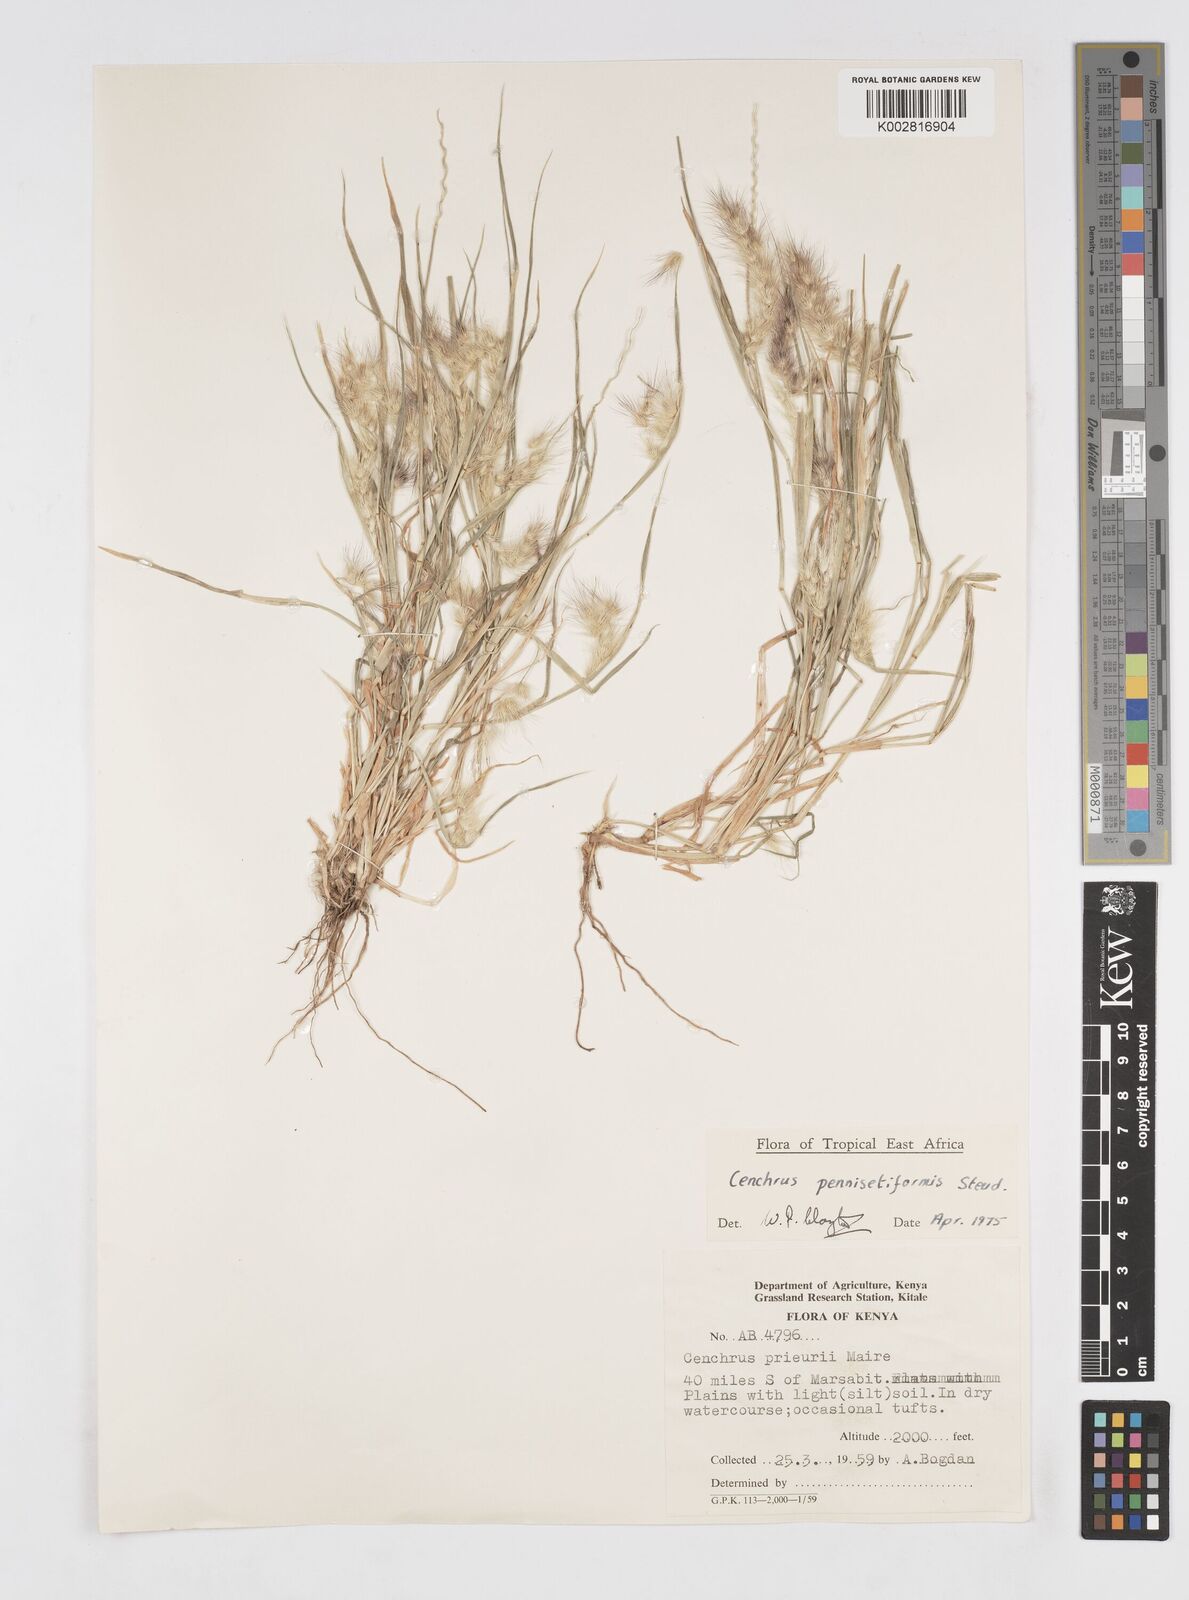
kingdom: Plantae
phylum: Tracheophyta
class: Liliopsida
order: Poales
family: Poaceae
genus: Cenchrus
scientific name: Cenchrus pennisetiformis
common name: Cloncurry
